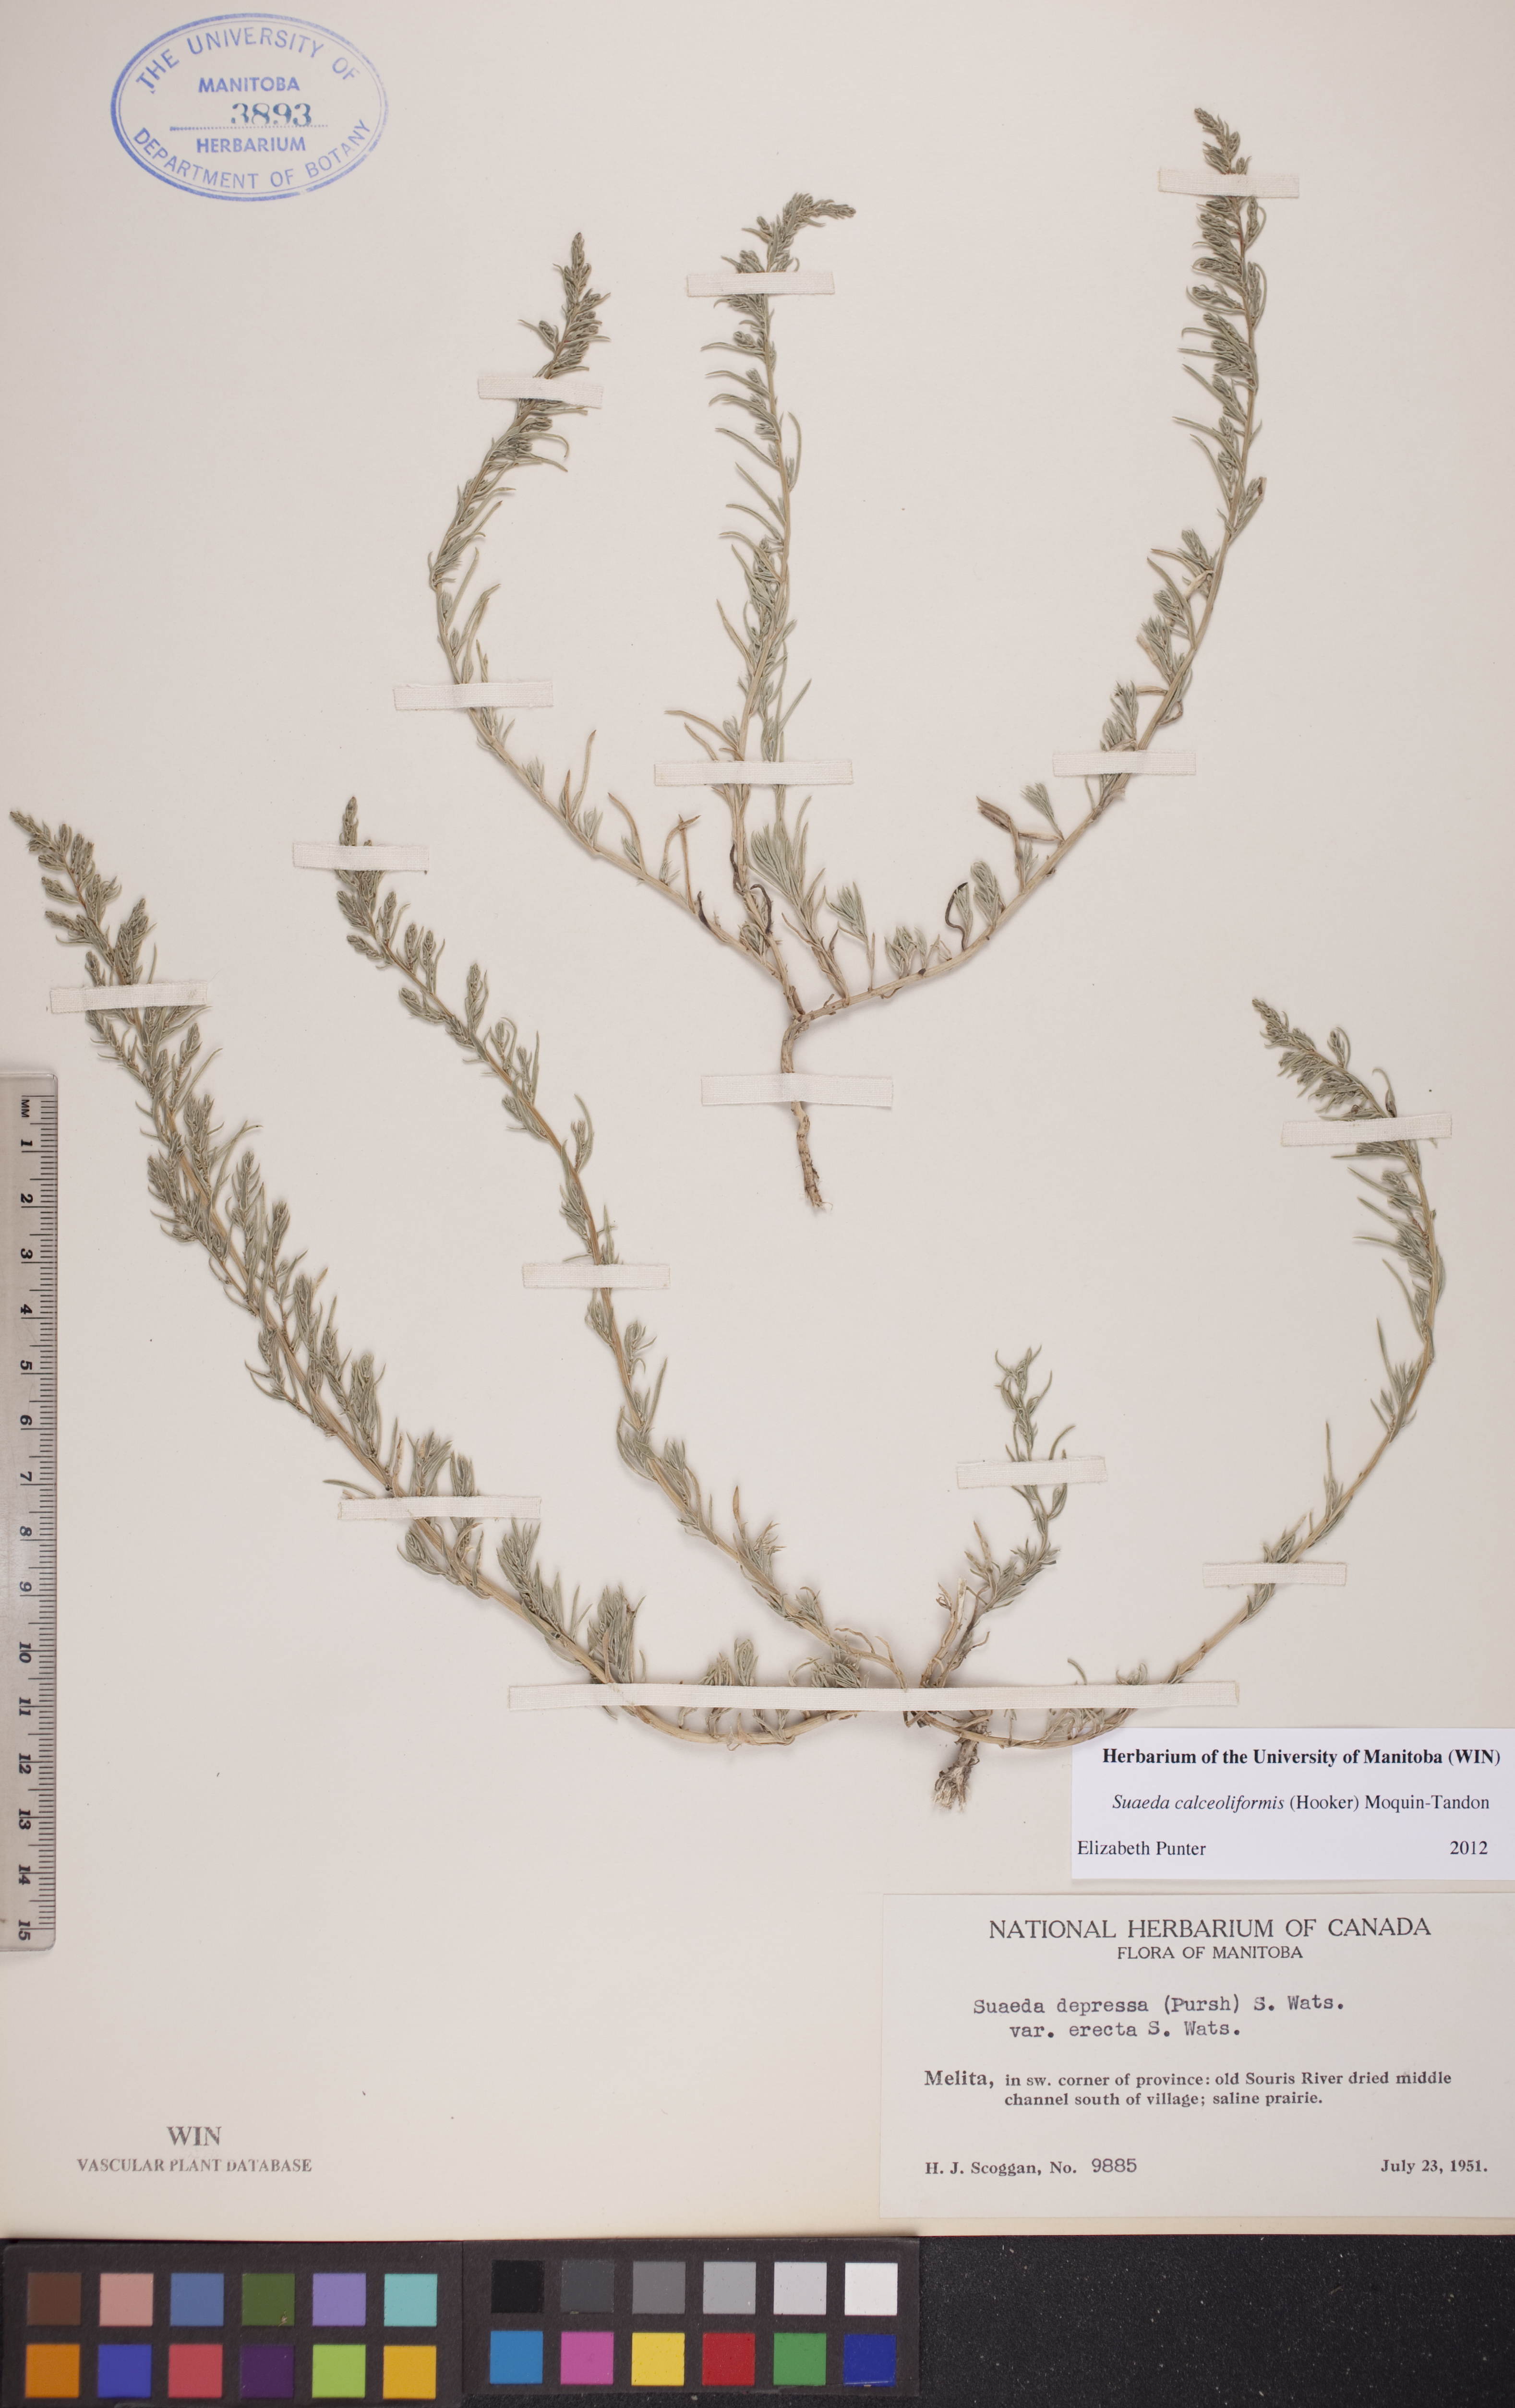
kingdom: Plantae
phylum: Tracheophyta
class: Magnoliopsida
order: Caryophyllales
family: Amaranthaceae
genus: Suaeda
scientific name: Suaeda calceoliformis
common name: Pursh's seepweed
